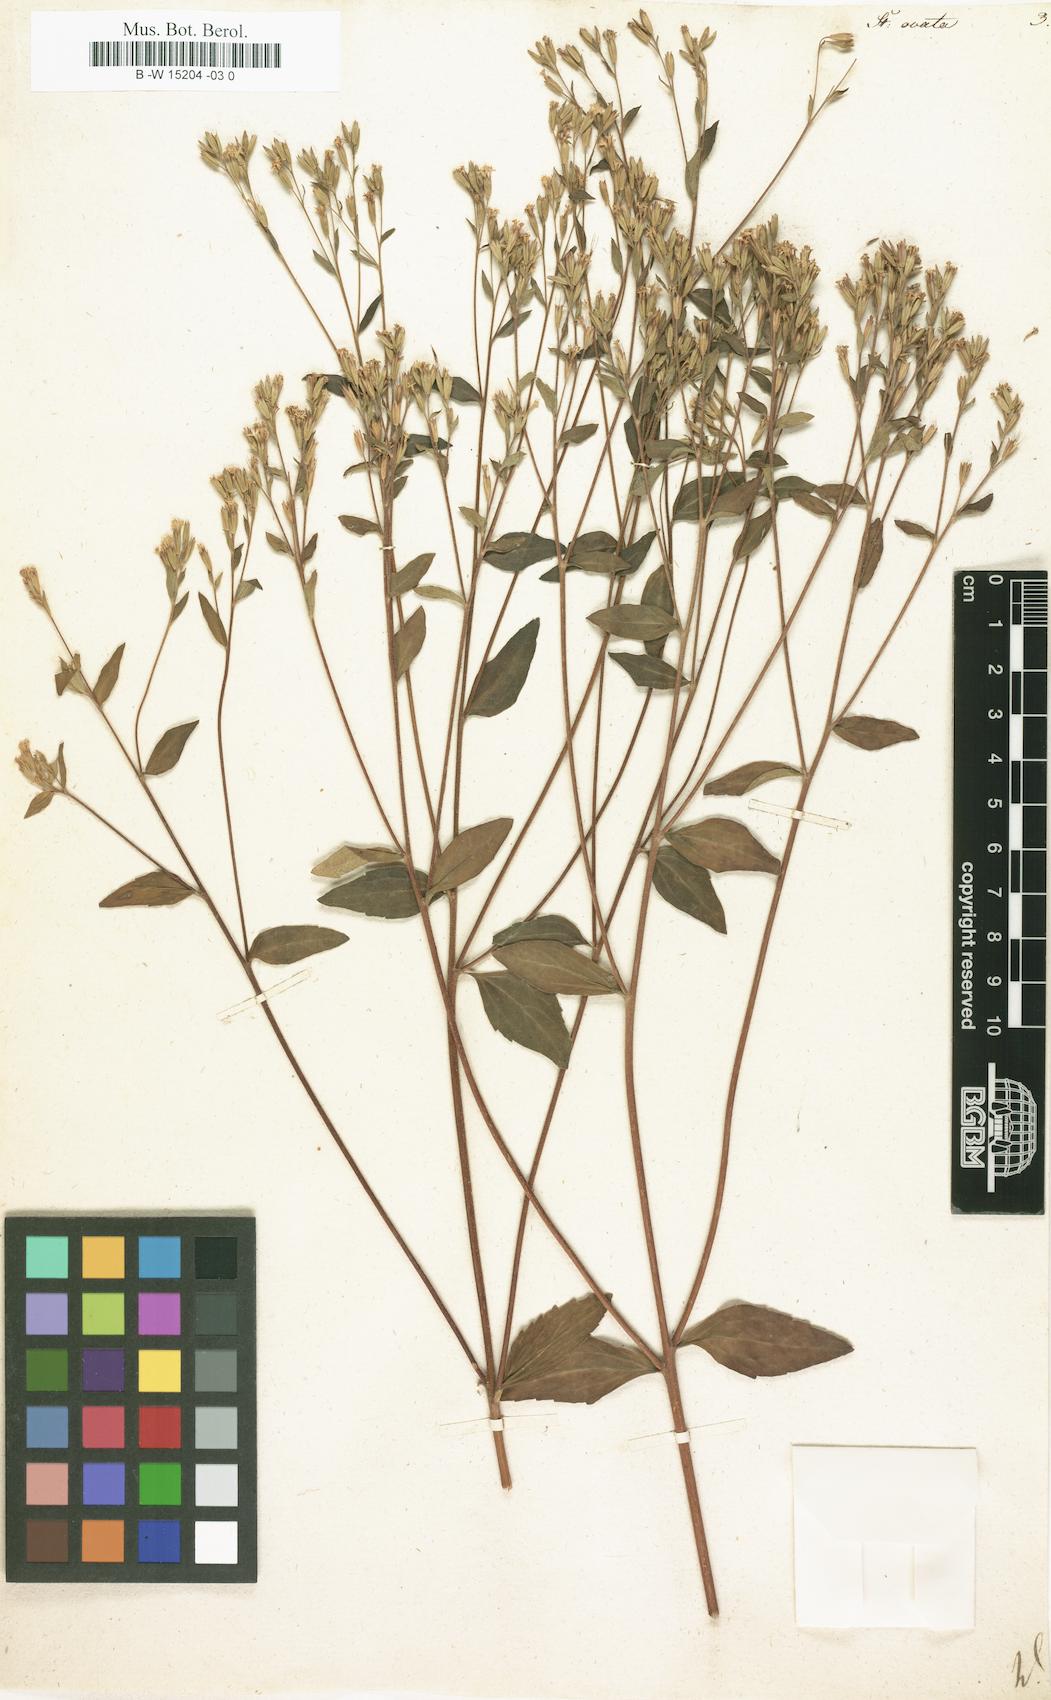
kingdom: Plantae
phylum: Tracheophyta
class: Magnoliopsida
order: Asterales
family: Asteraceae
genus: Stevia
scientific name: Stevia ovata
